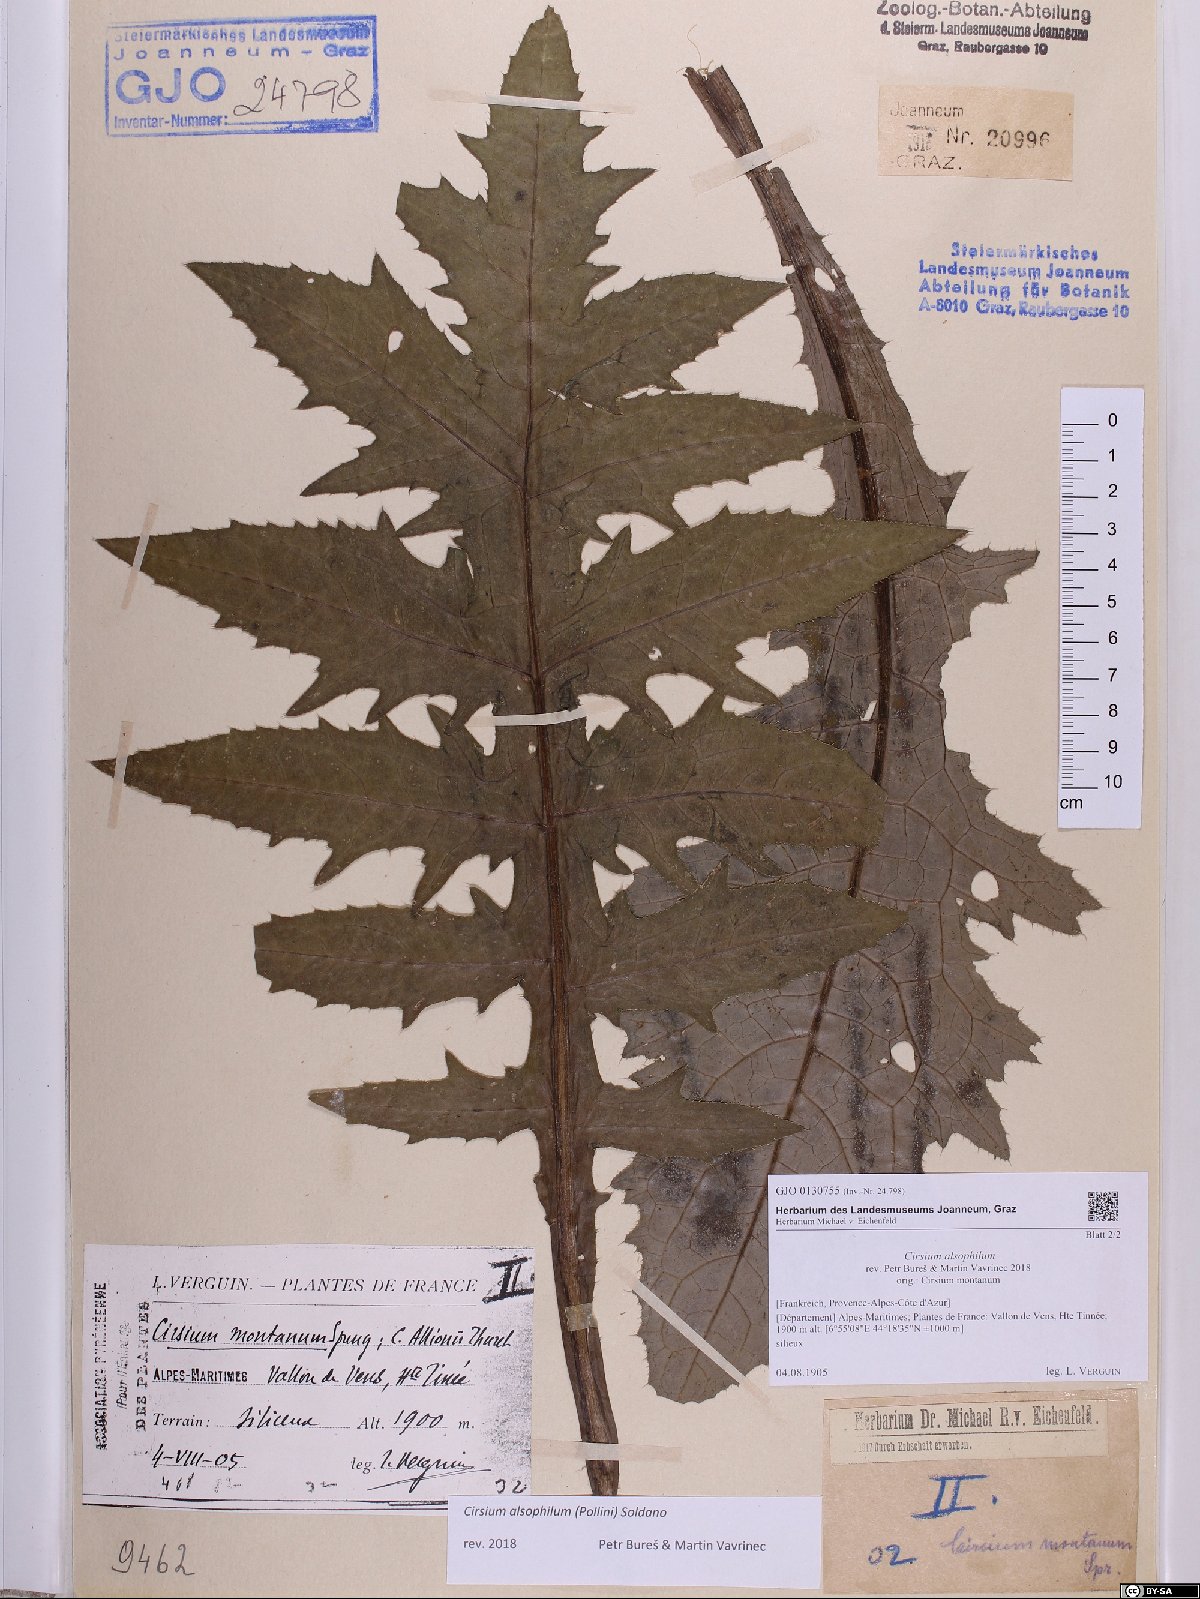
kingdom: Plantae
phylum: Tracheophyta
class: Magnoliopsida
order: Asterales
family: Asteraceae
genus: Cirsium
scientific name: Cirsium alsophilum
